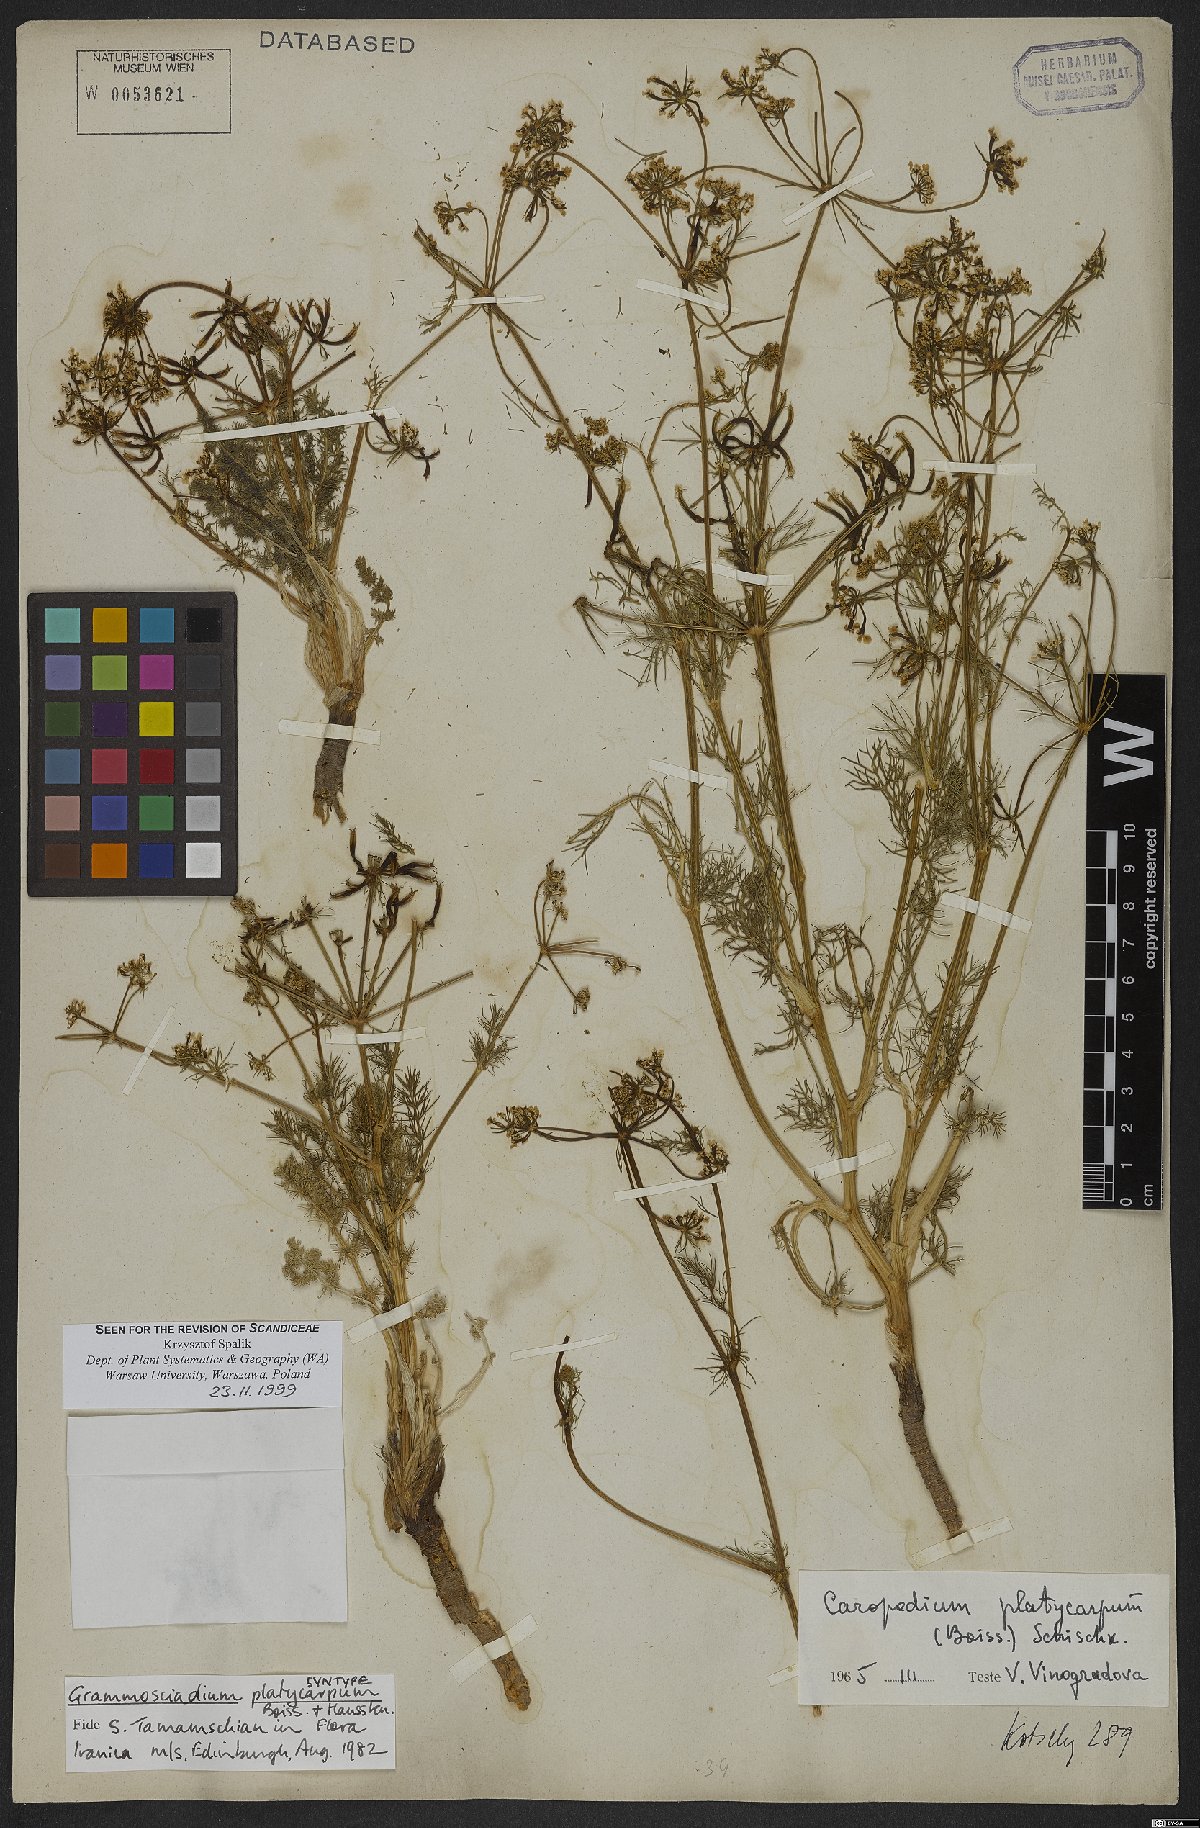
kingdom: Plantae
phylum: Tracheophyta
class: Magnoliopsida
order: Apiales
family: Apiaceae
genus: Caropodium
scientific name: Caropodium platycarpum
